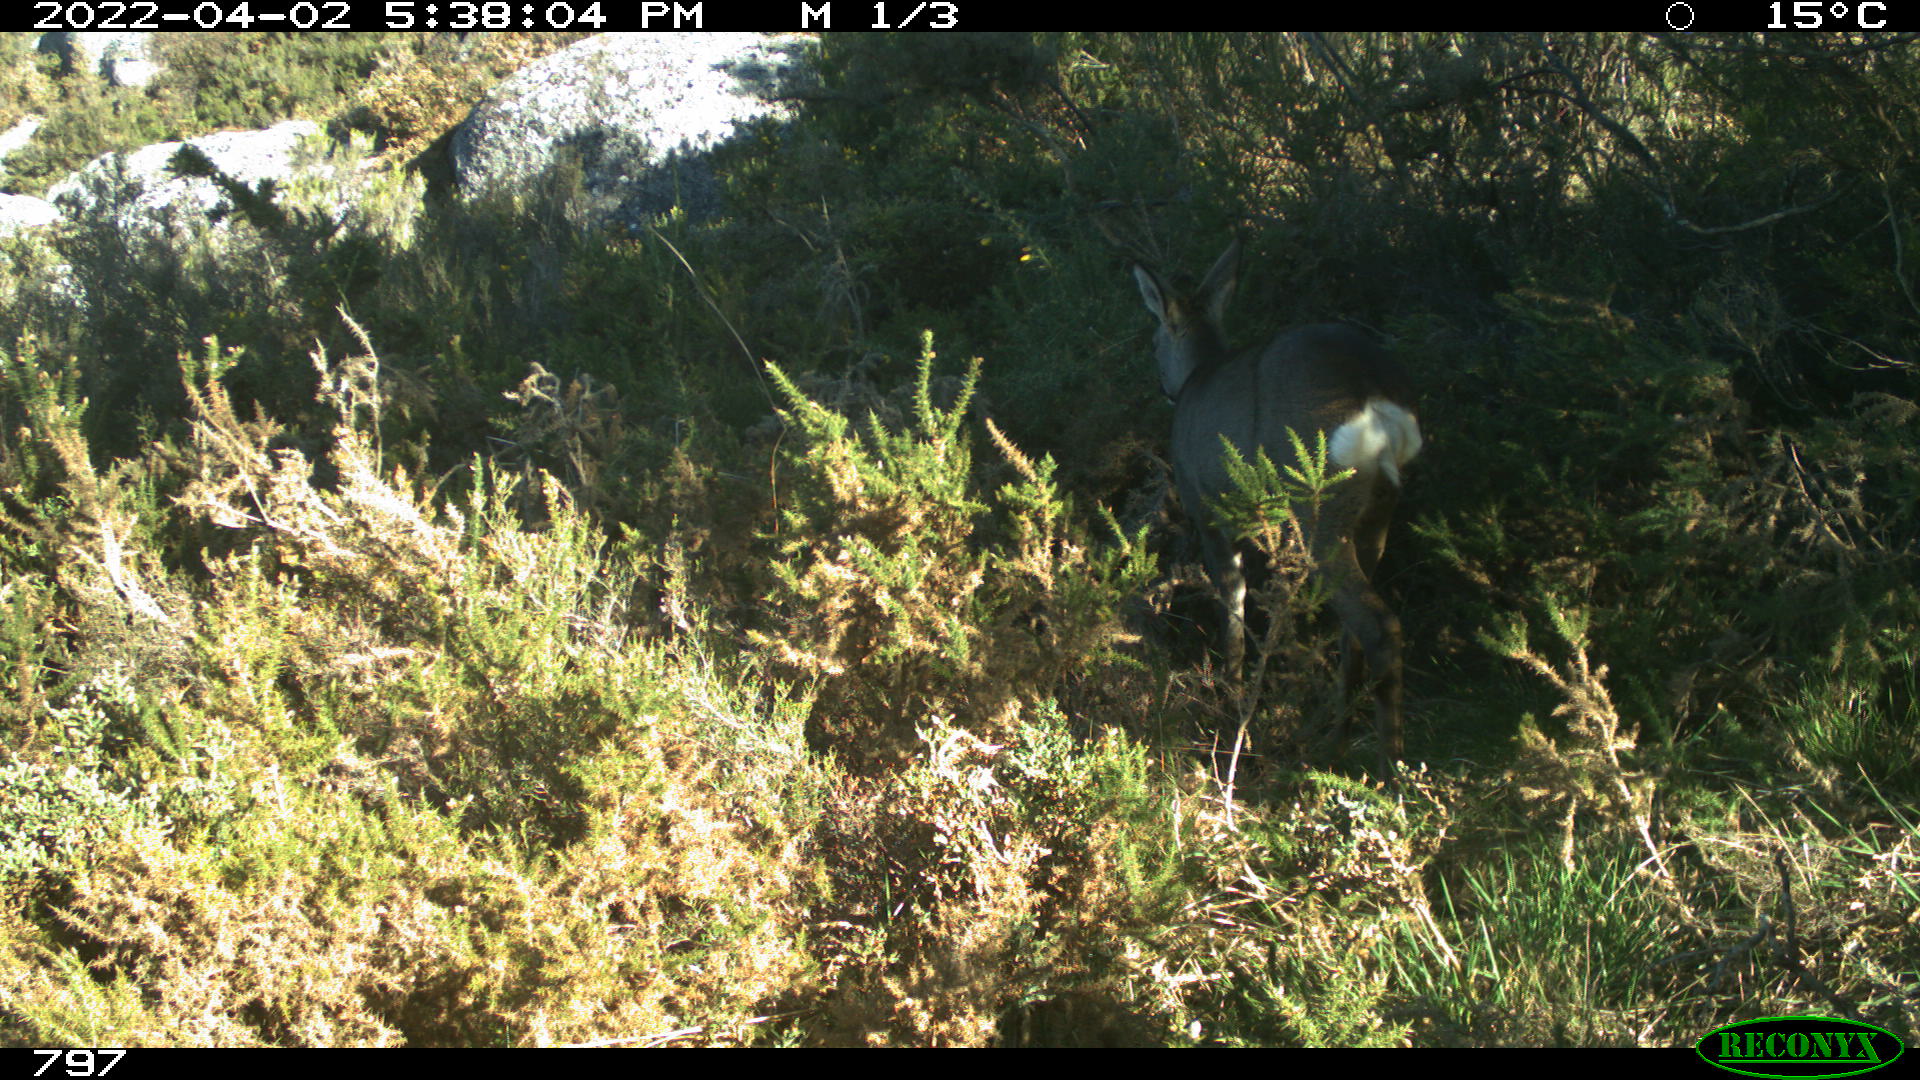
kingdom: Animalia
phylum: Chordata
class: Mammalia
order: Artiodactyla
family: Cervidae
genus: Capreolus
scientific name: Capreolus capreolus
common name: Western roe deer
